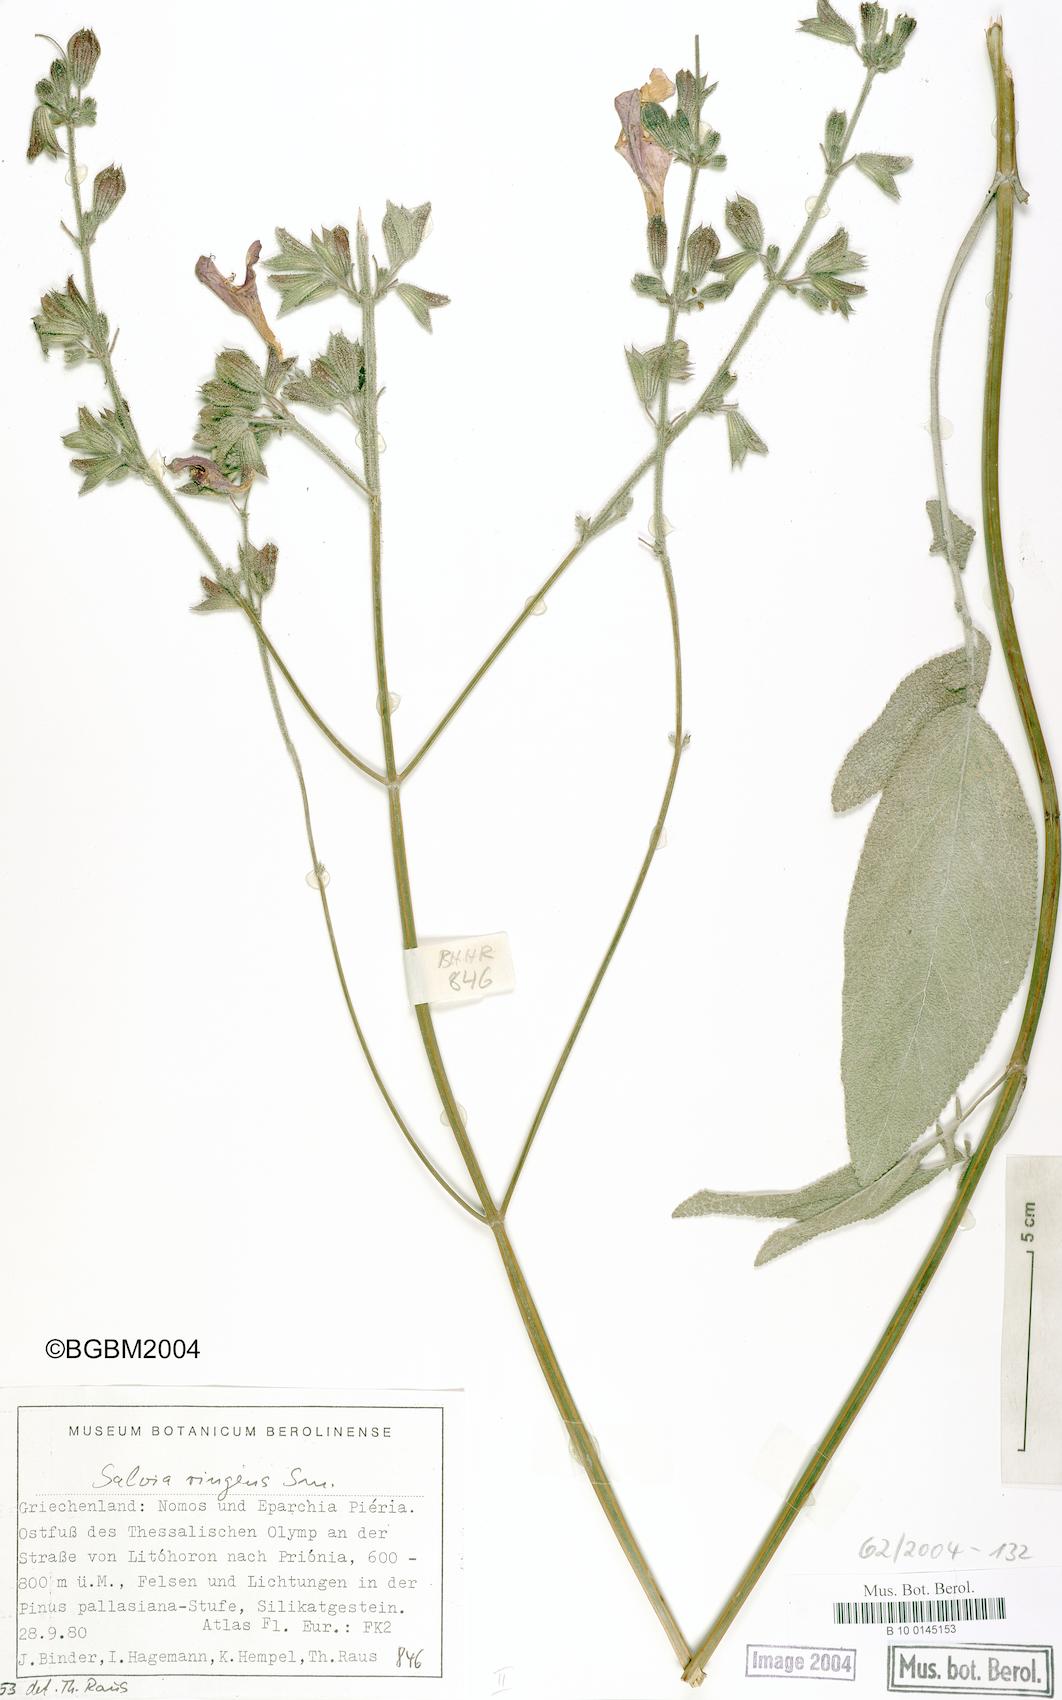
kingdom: Plantae
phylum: Tracheophyta
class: Magnoliopsida
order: Lamiales
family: Lamiaceae
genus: Salvia
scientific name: Salvia ringens
